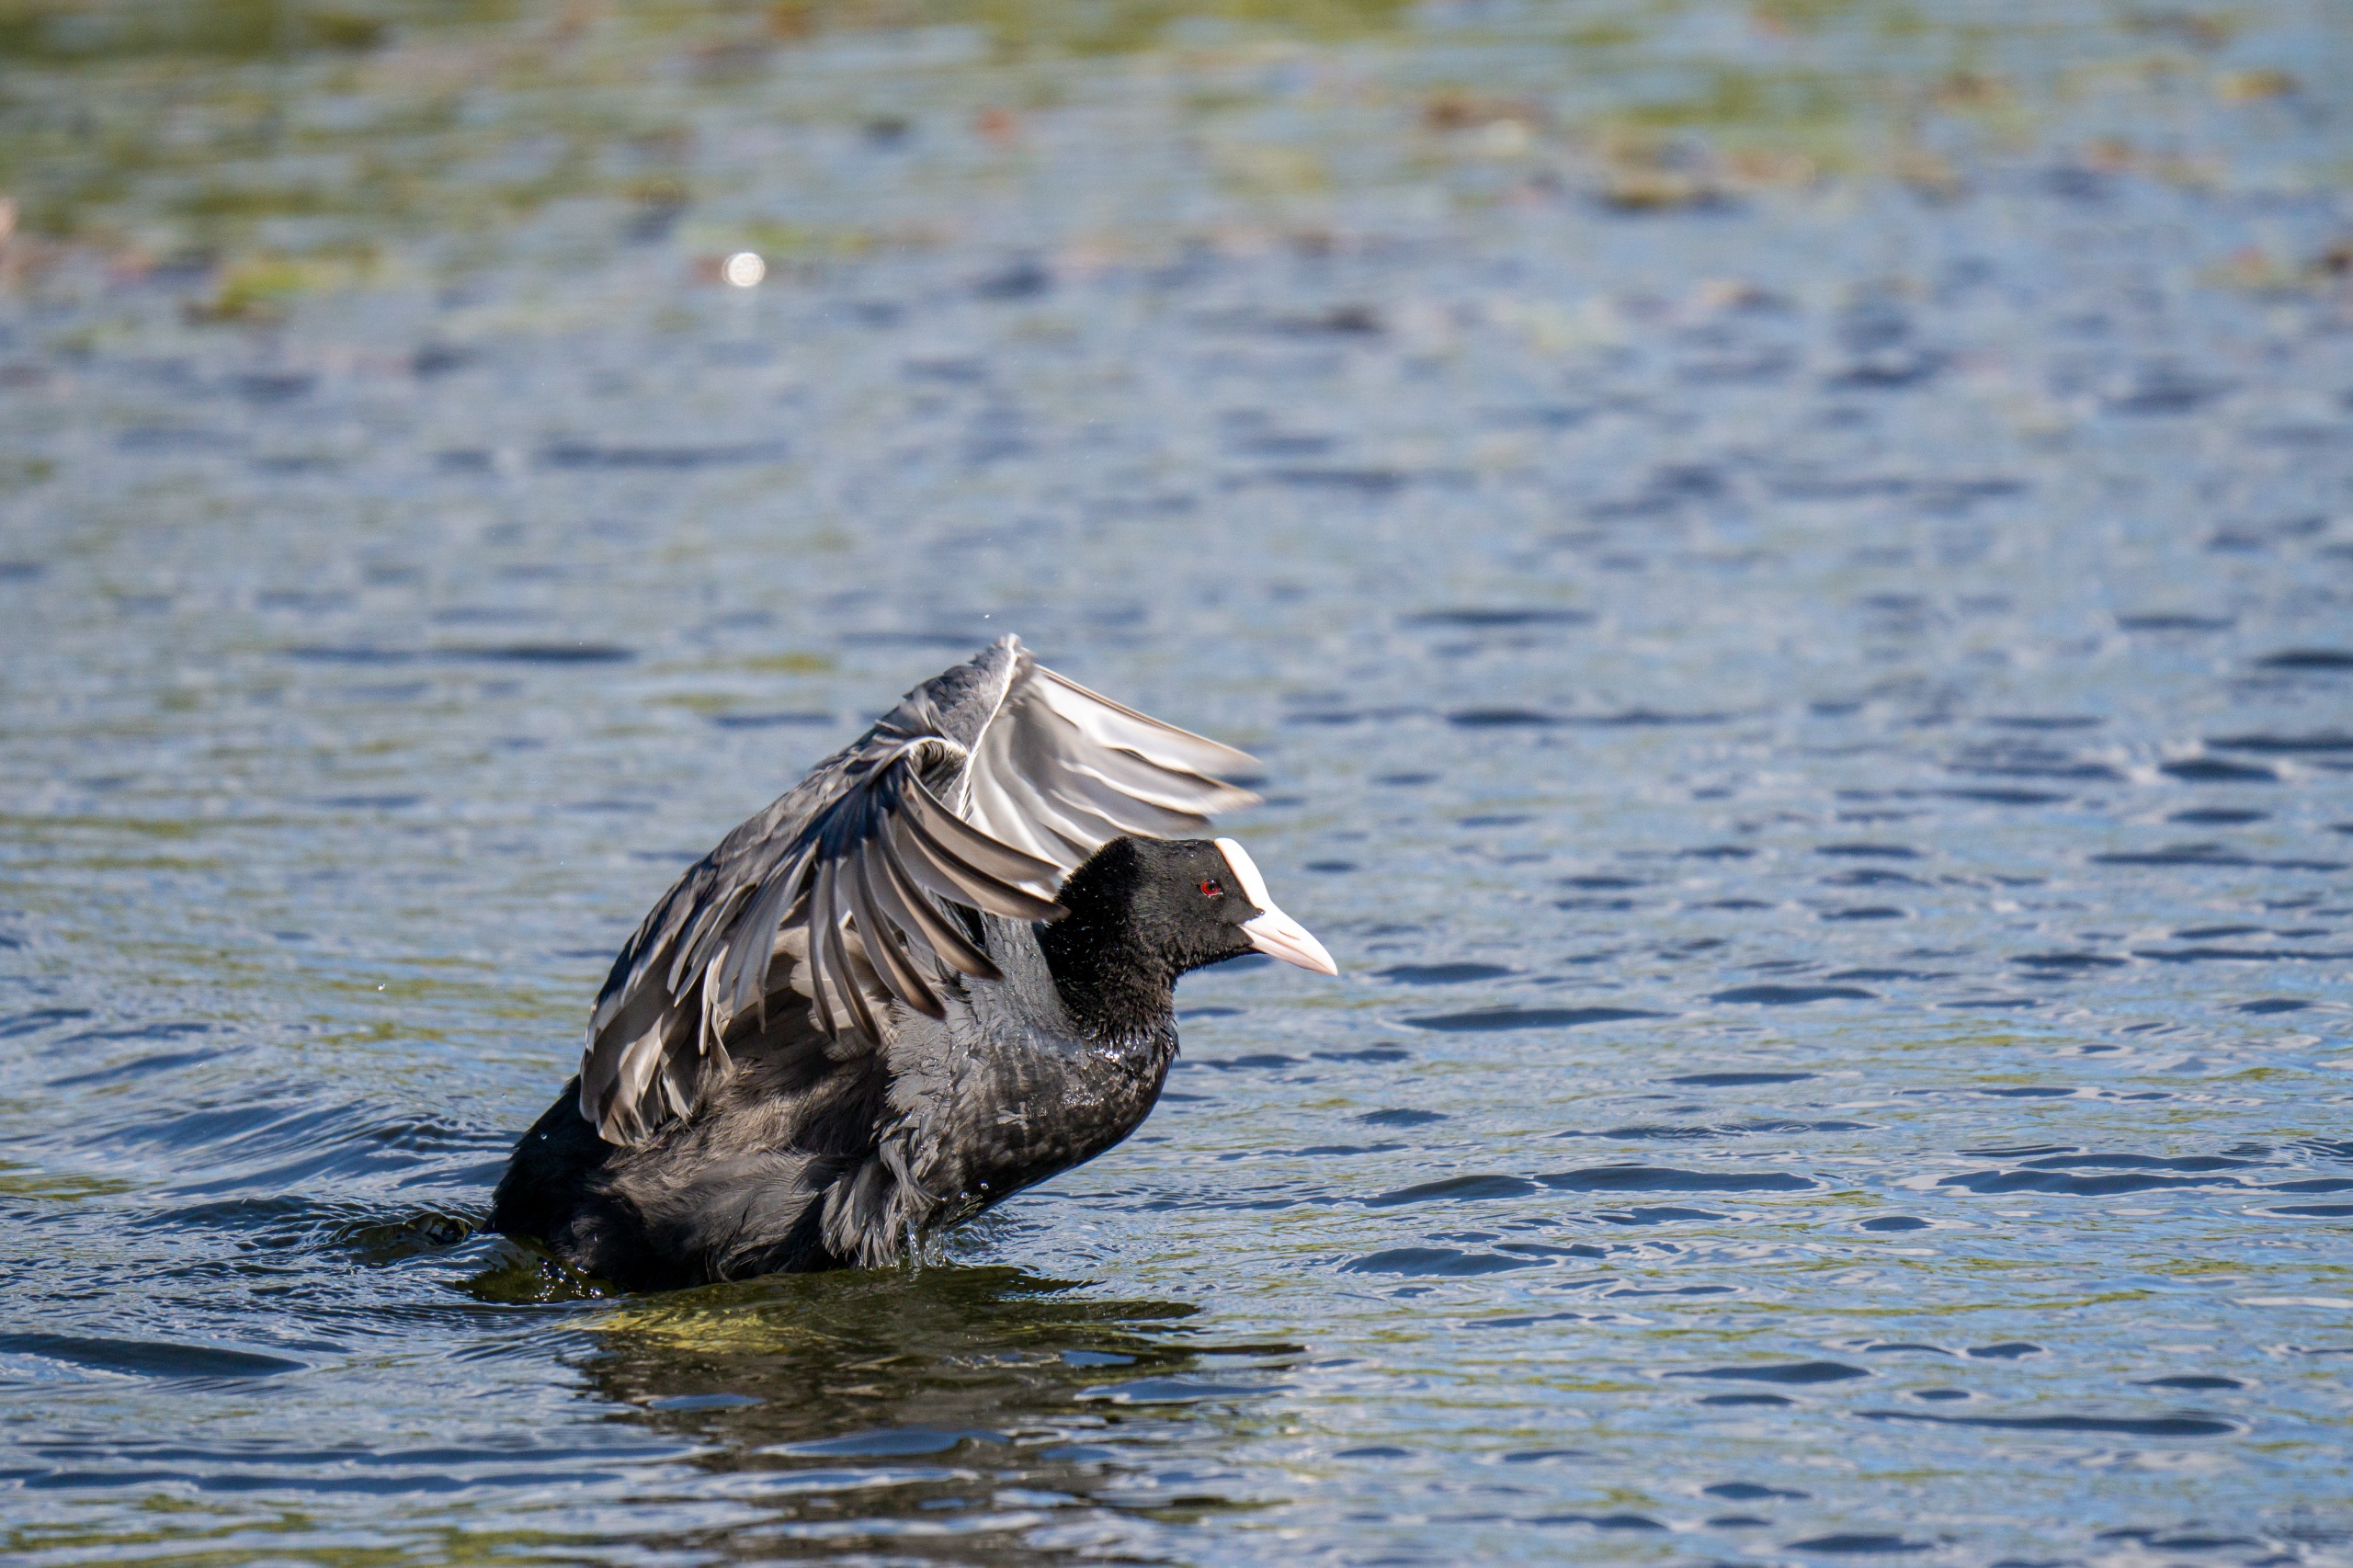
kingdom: Animalia
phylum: Chordata
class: Aves
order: Gruiformes
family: Rallidae
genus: Fulica
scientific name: Fulica atra
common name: Blishøne
